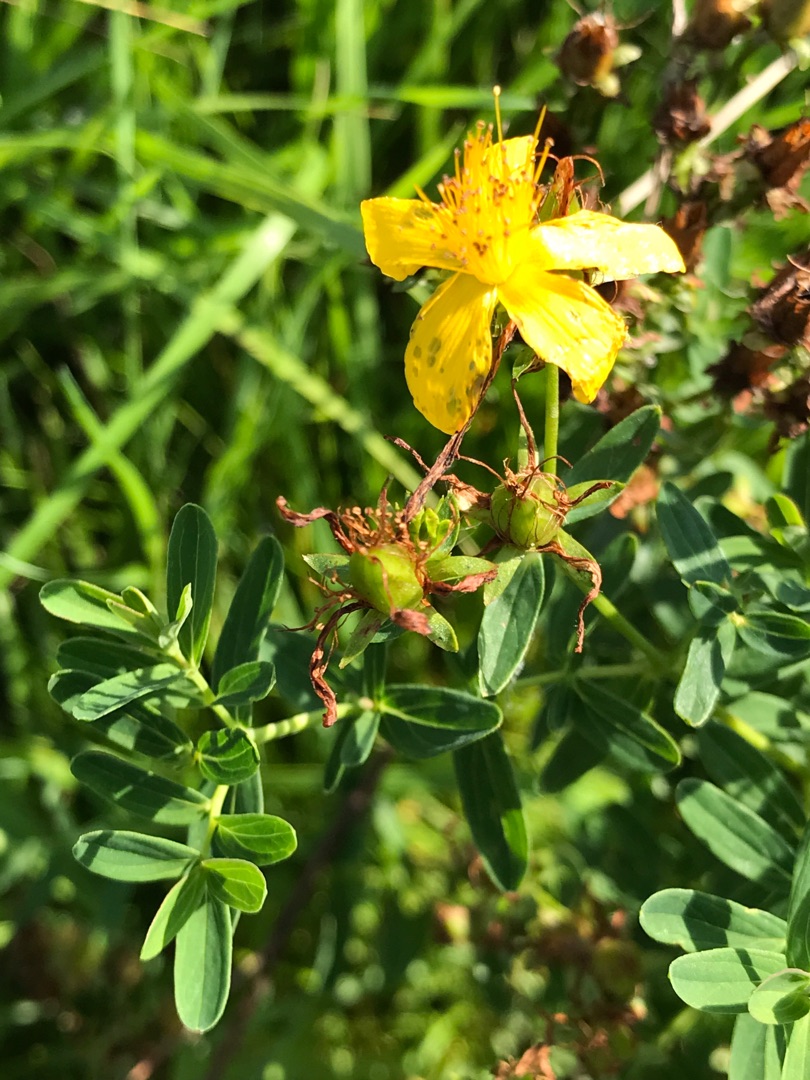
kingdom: Plantae
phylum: Tracheophyta
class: Magnoliopsida
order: Malpighiales
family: Hypericaceae
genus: Hypericum
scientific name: Hypericum perforatum
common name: Prikbladet perikon
